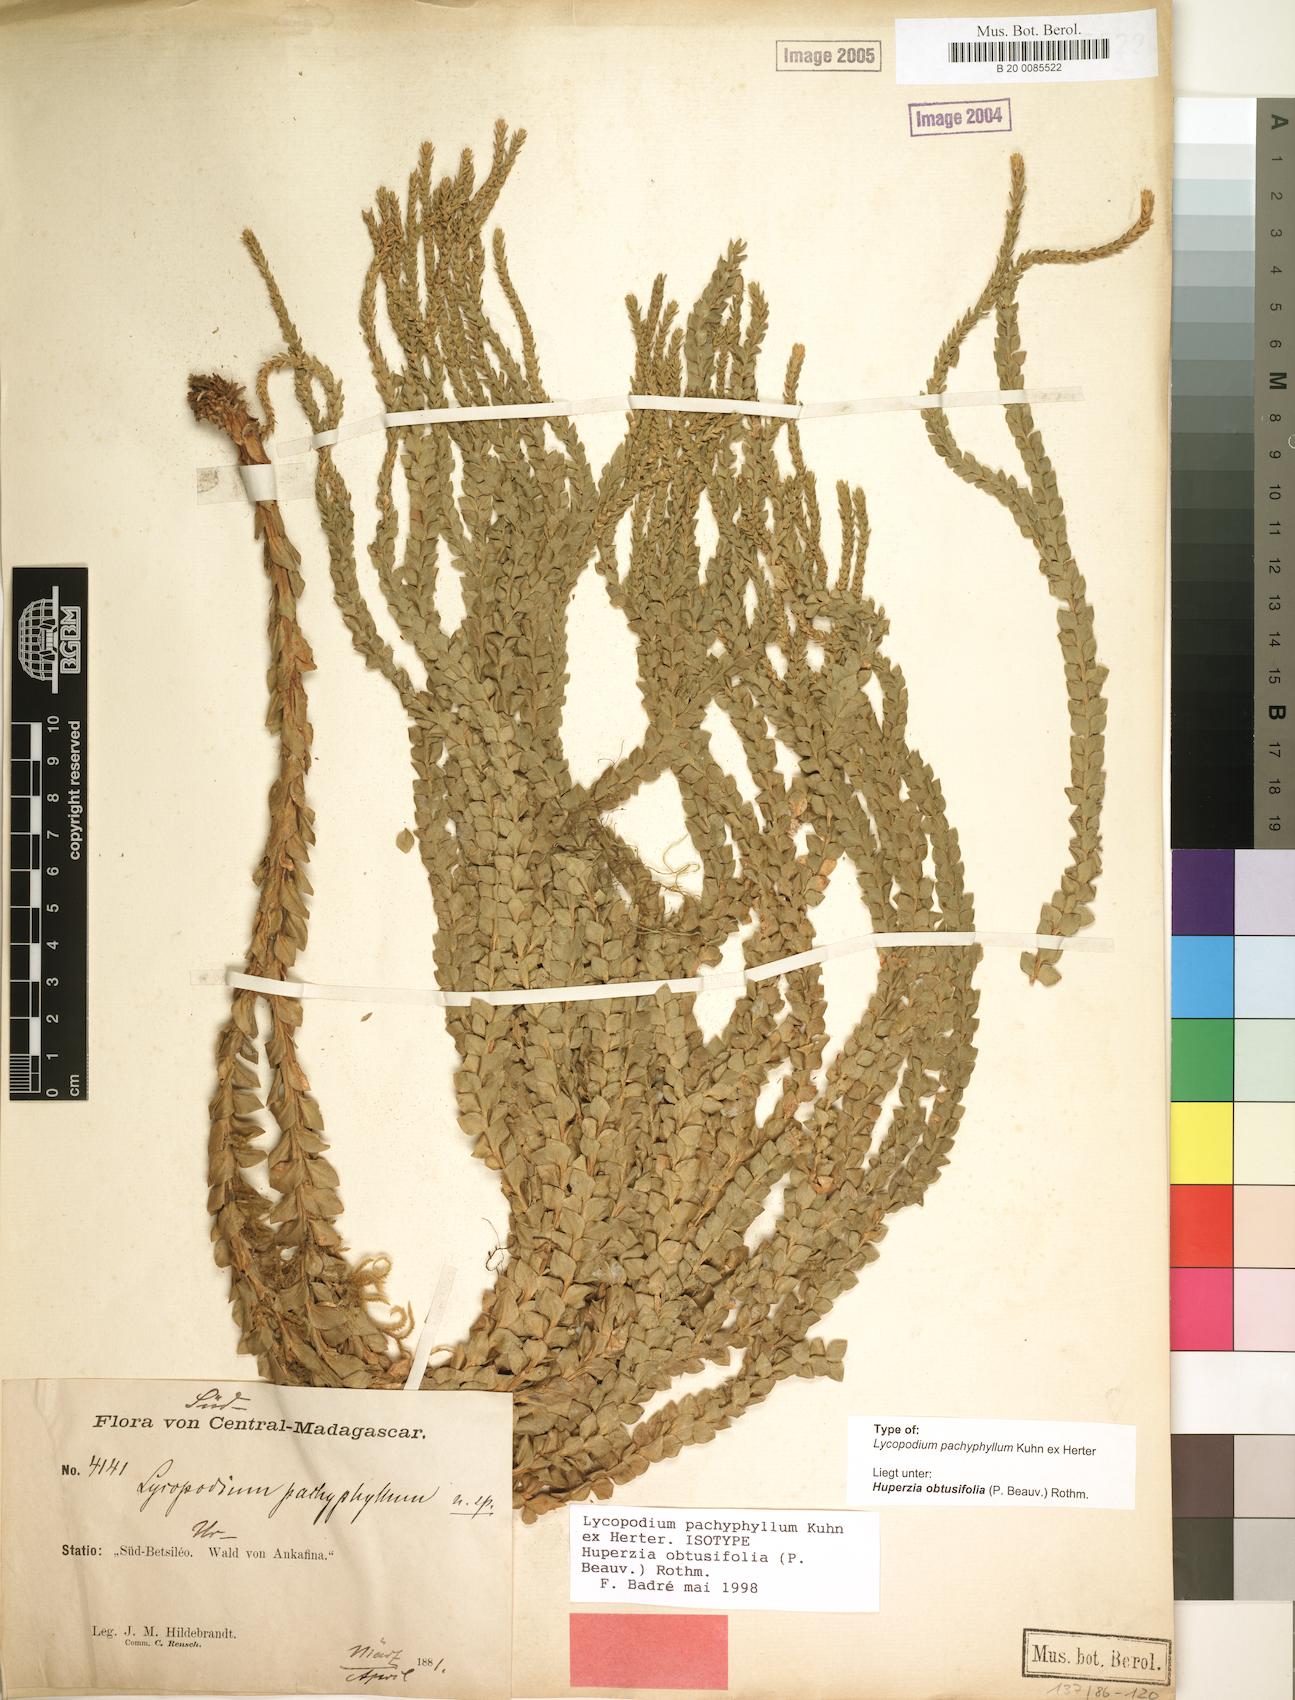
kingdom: Plantae
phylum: Tracheophyta
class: Lycopodiopsida
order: Lycopodiales
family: Lycopodiaceae
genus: Phlegmariurus
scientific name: Phlegmariurus pachyphyllus
